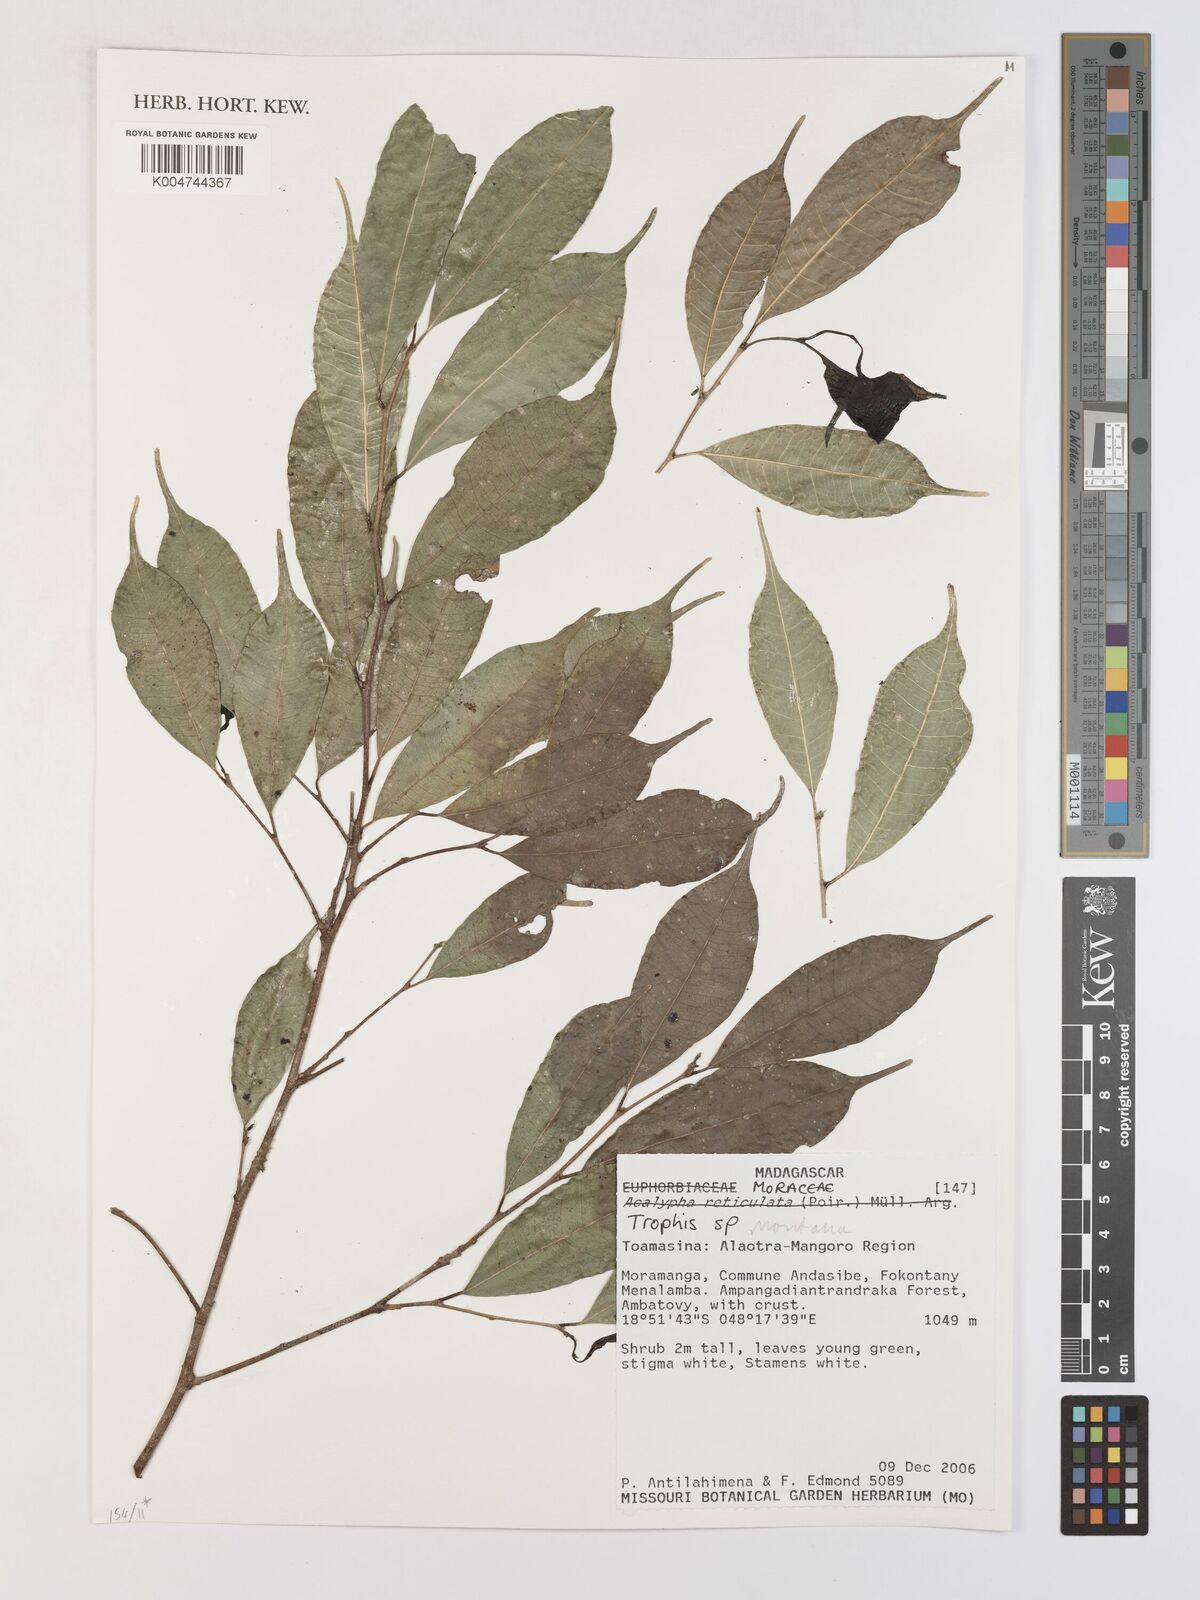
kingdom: Plantae
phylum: Tracheophyta
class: Magnoliopsida
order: Rosales
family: Moraceae
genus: Maillardia
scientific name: Maillardia montana
